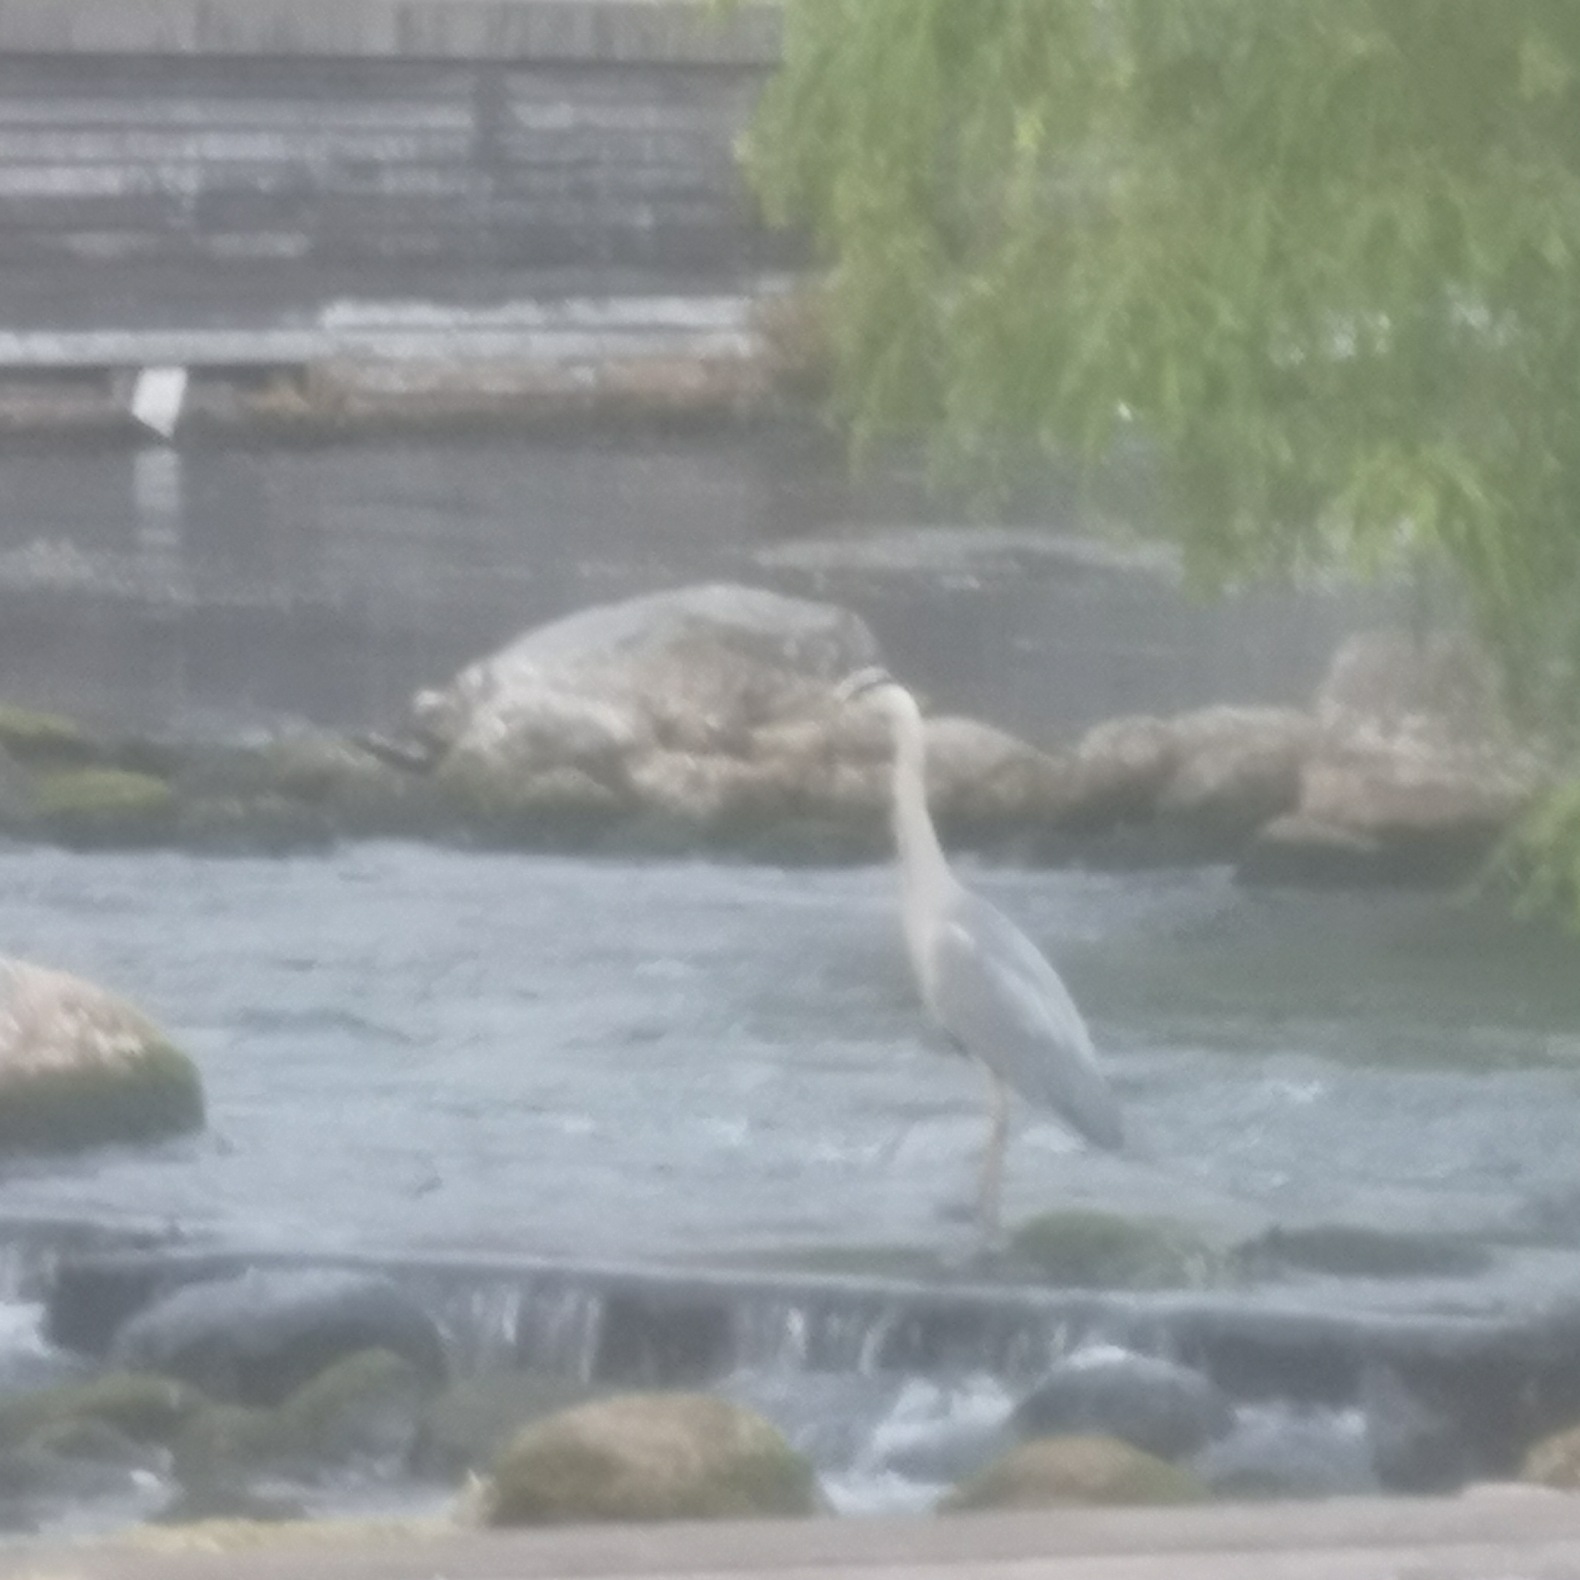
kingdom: Animalia
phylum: Chordata
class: Aves
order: Pelecaniformes
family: Ardeidae
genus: Ardea
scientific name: Ardea cinerea
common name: Fiskehejre
